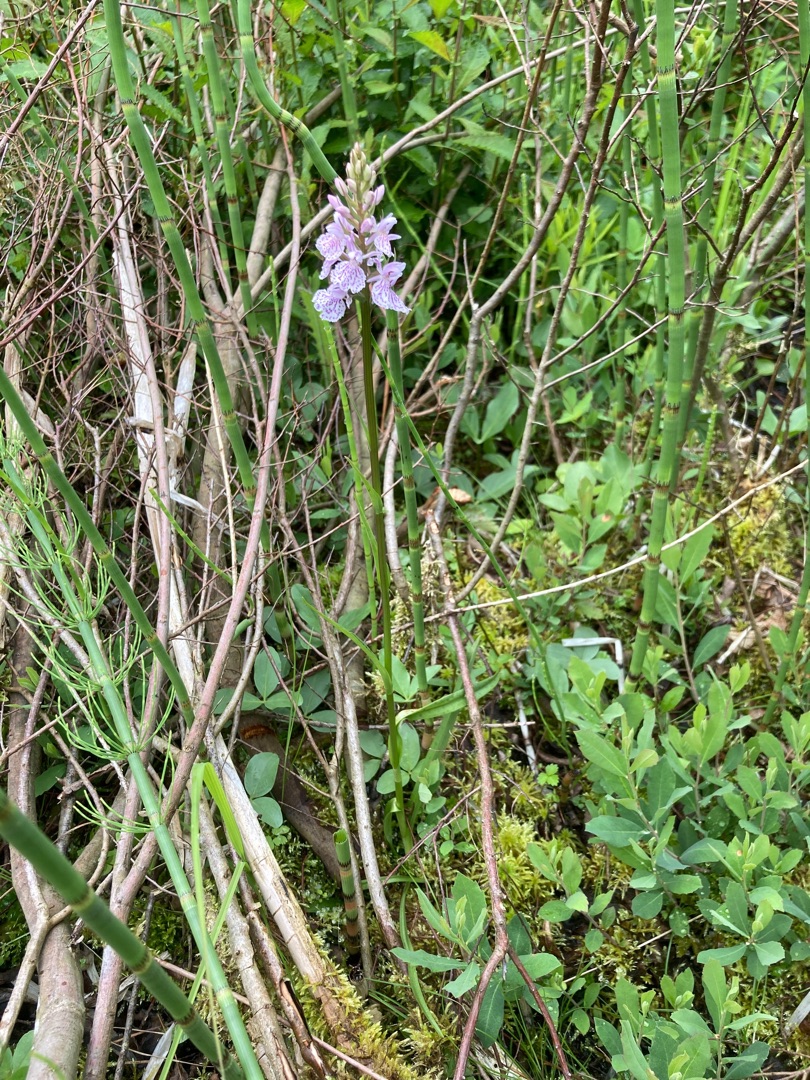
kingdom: Plantae
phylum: Tracheophyta
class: Liliopsida
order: Asparagales
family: Orchidaceae
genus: Dactylorhiza
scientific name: Dactylorhiza maculata
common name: Plettet gøgeurt
